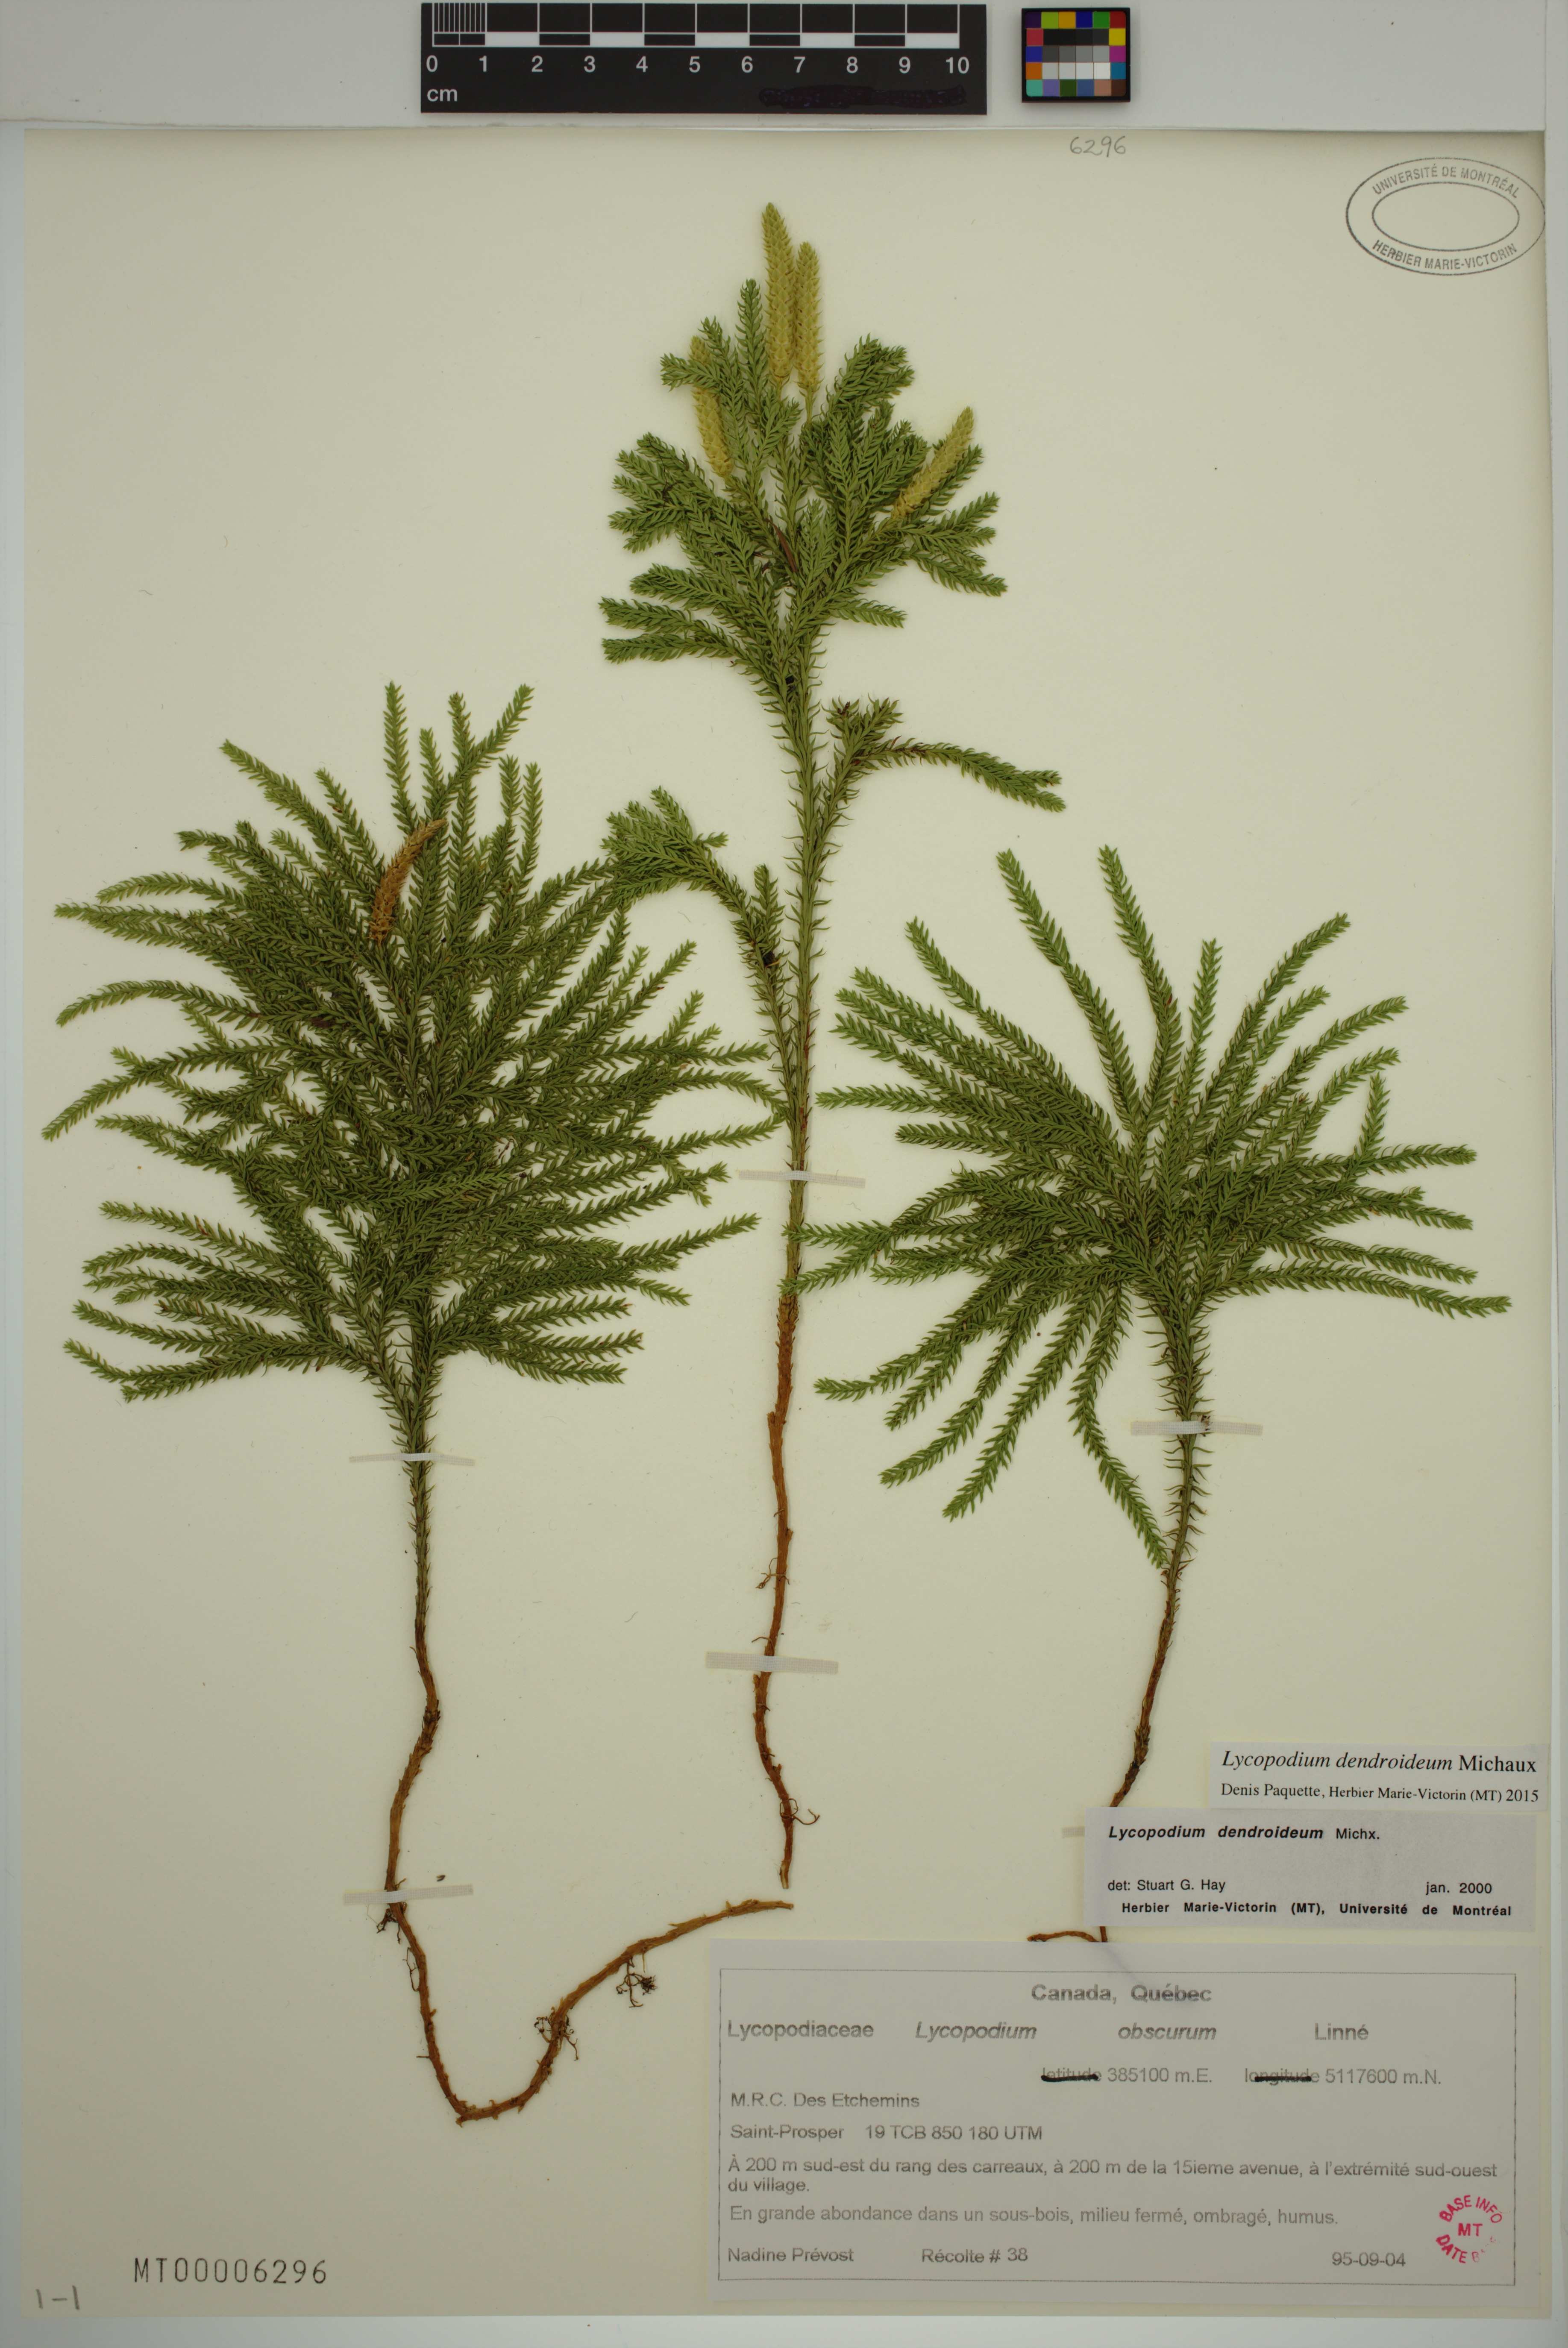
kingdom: Plantae
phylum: Tracheophyta
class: Lycopodiopsida
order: Lycopodiales
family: Lycopodiaceae
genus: Dendrolycopodium
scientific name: Dendrolycopodium dendroideum
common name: Northern tree-clubmoss
